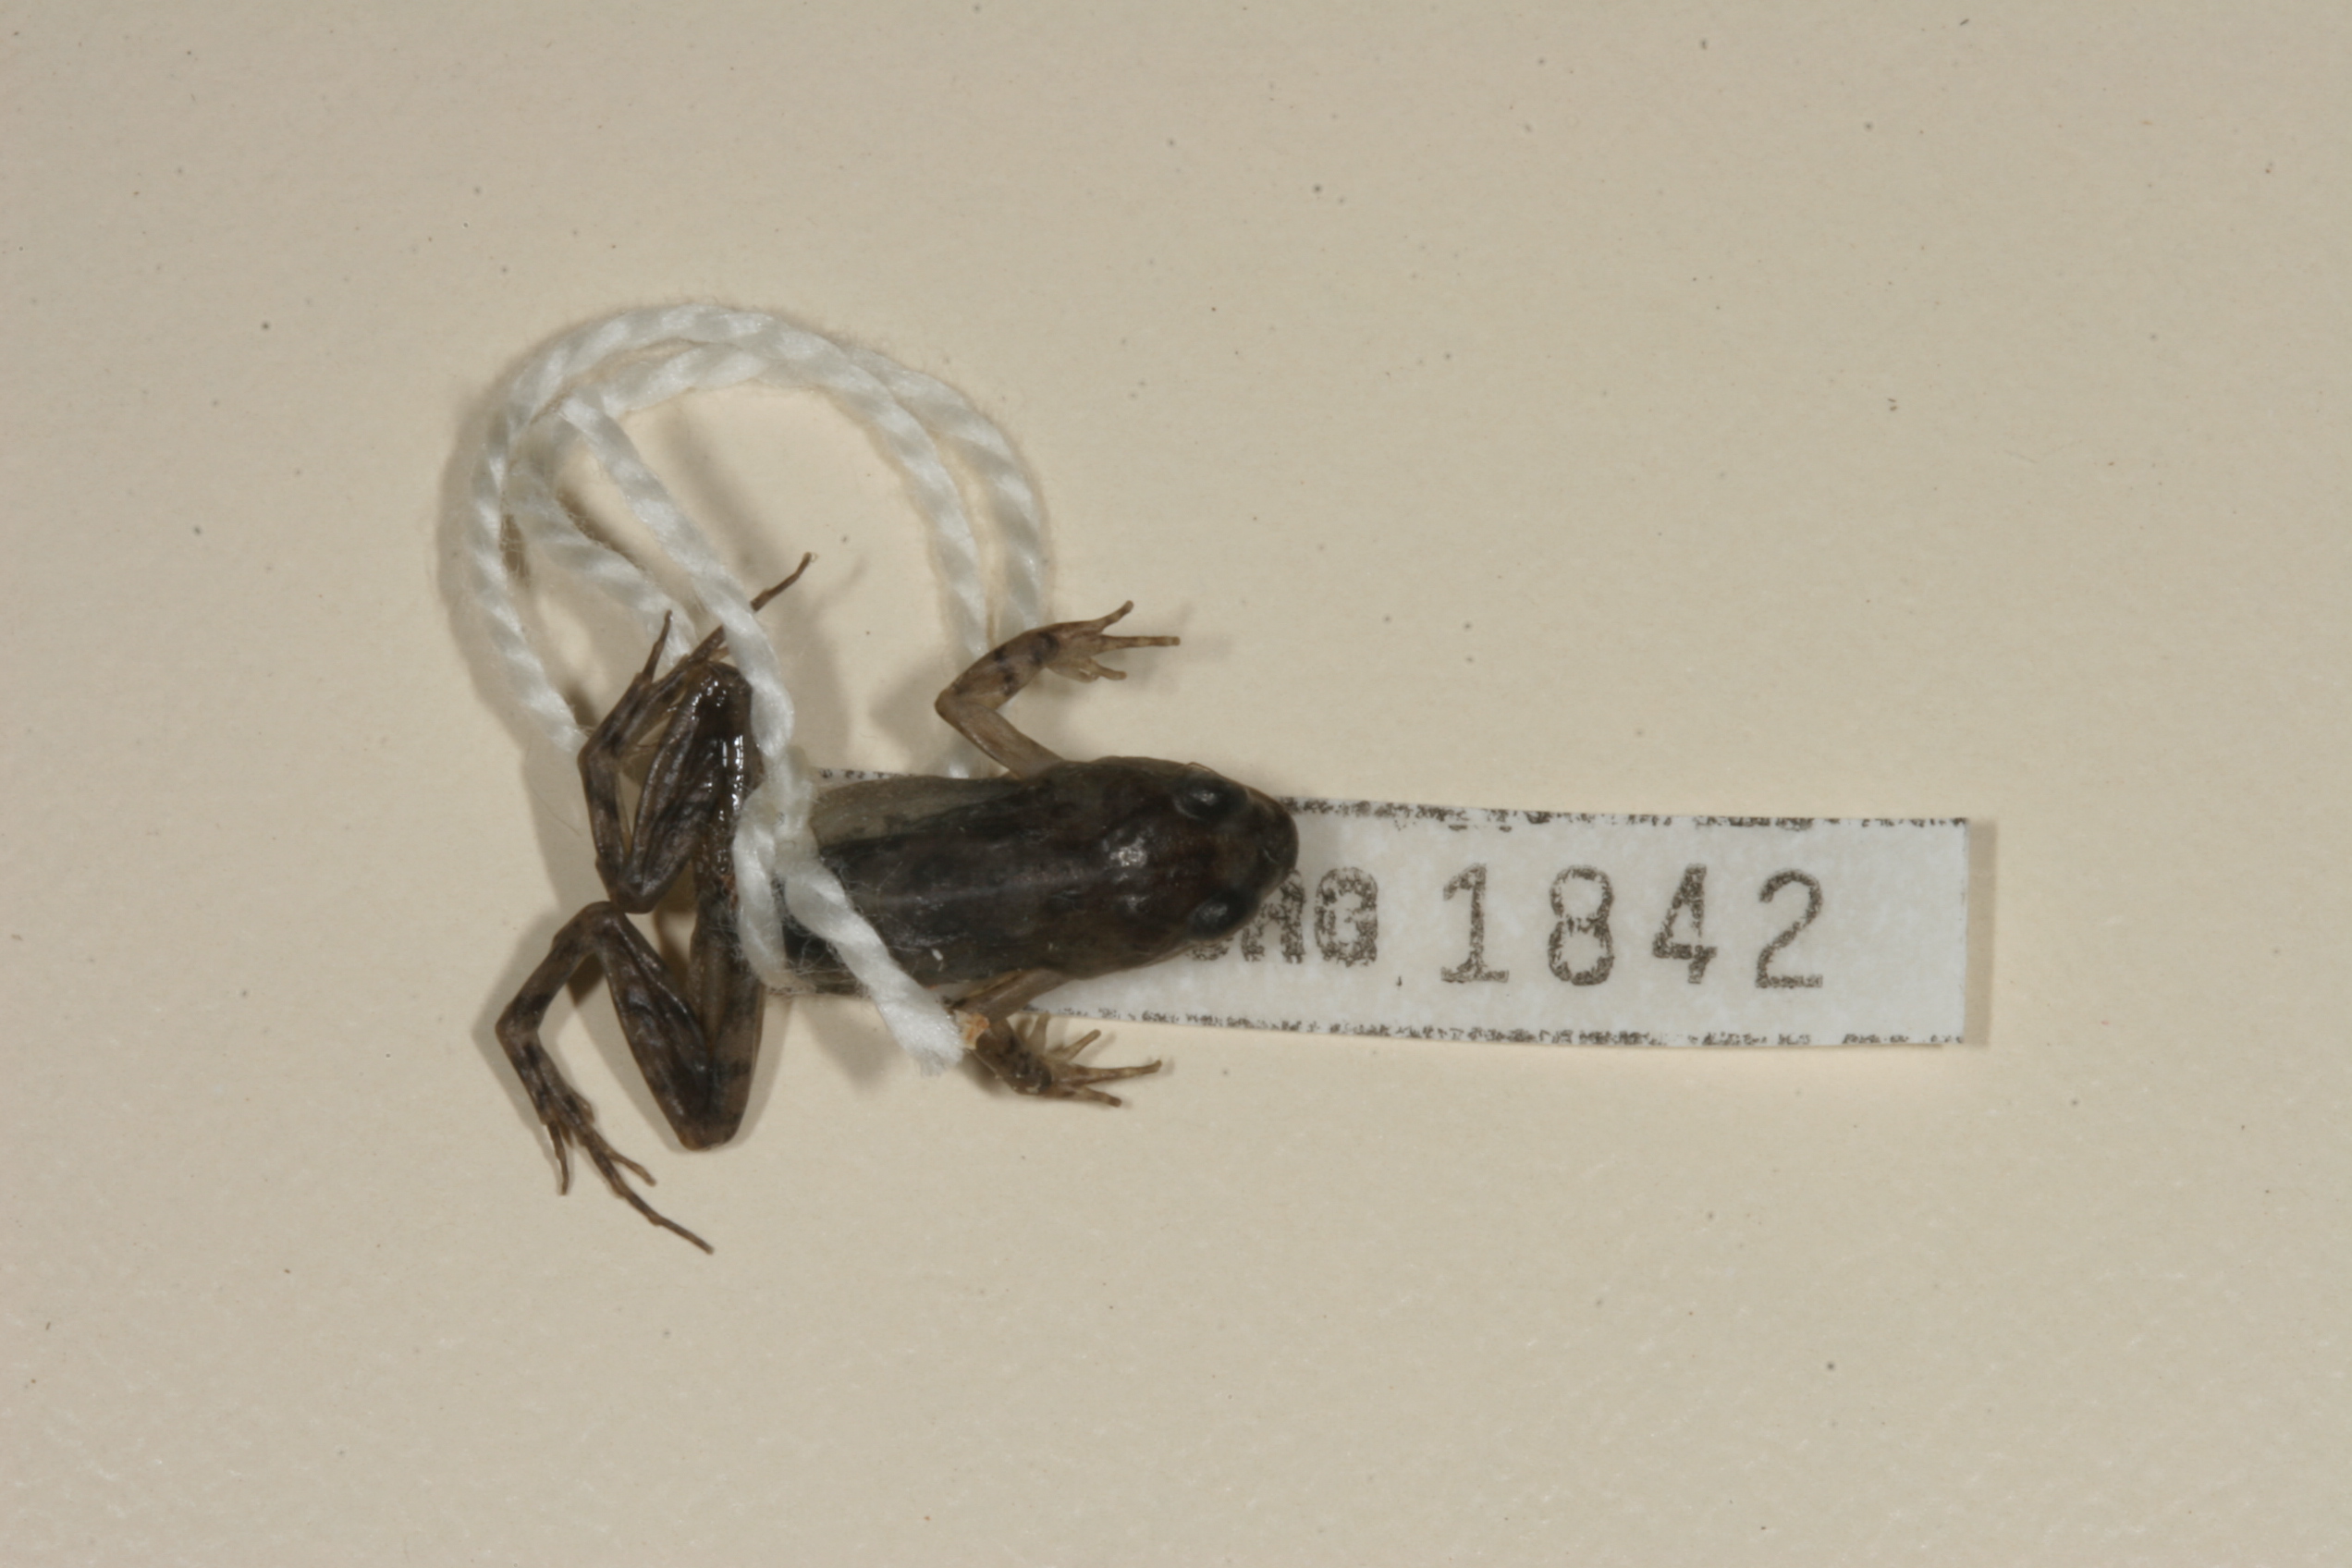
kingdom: Animalia
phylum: Chordata
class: Amphibia
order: Anura
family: Pyxicephalidae
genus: Cacosternum
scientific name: Cacosternum nanum
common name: Bronze dainty frog
